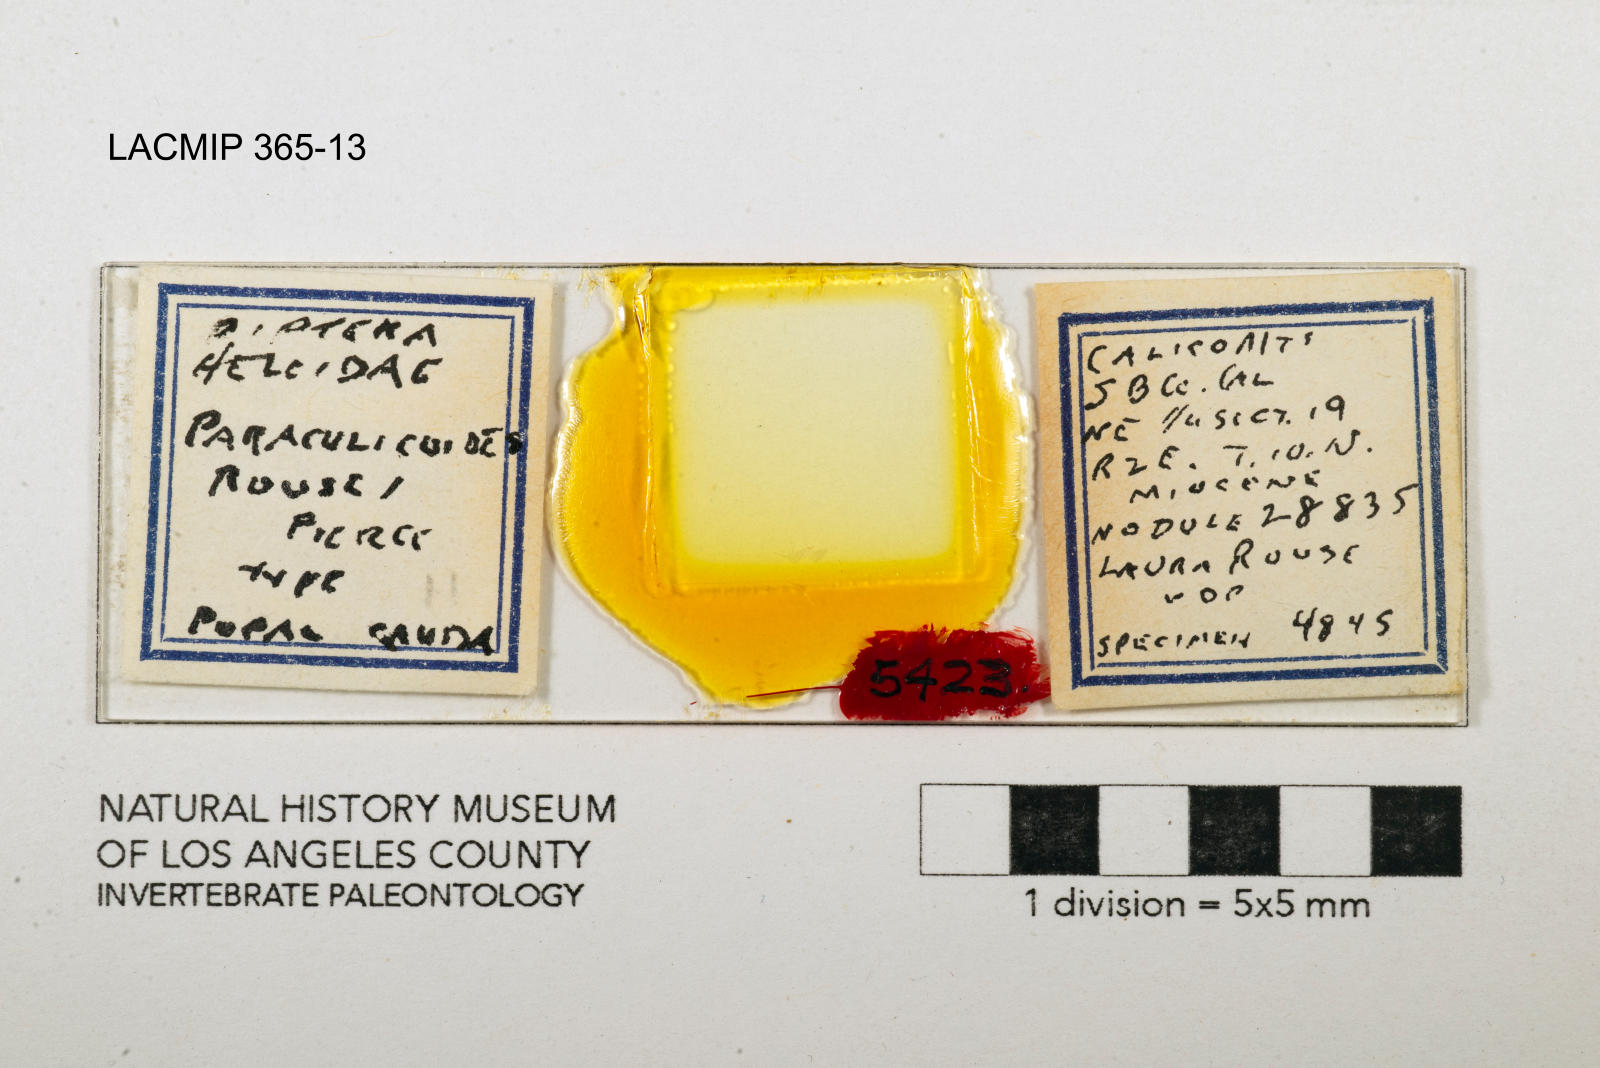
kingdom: Animalia
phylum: Arthropoda
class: Insecta
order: Diptera
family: Ceratopogonidae
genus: Paraculicoides
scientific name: Paraculicoides rouseae
